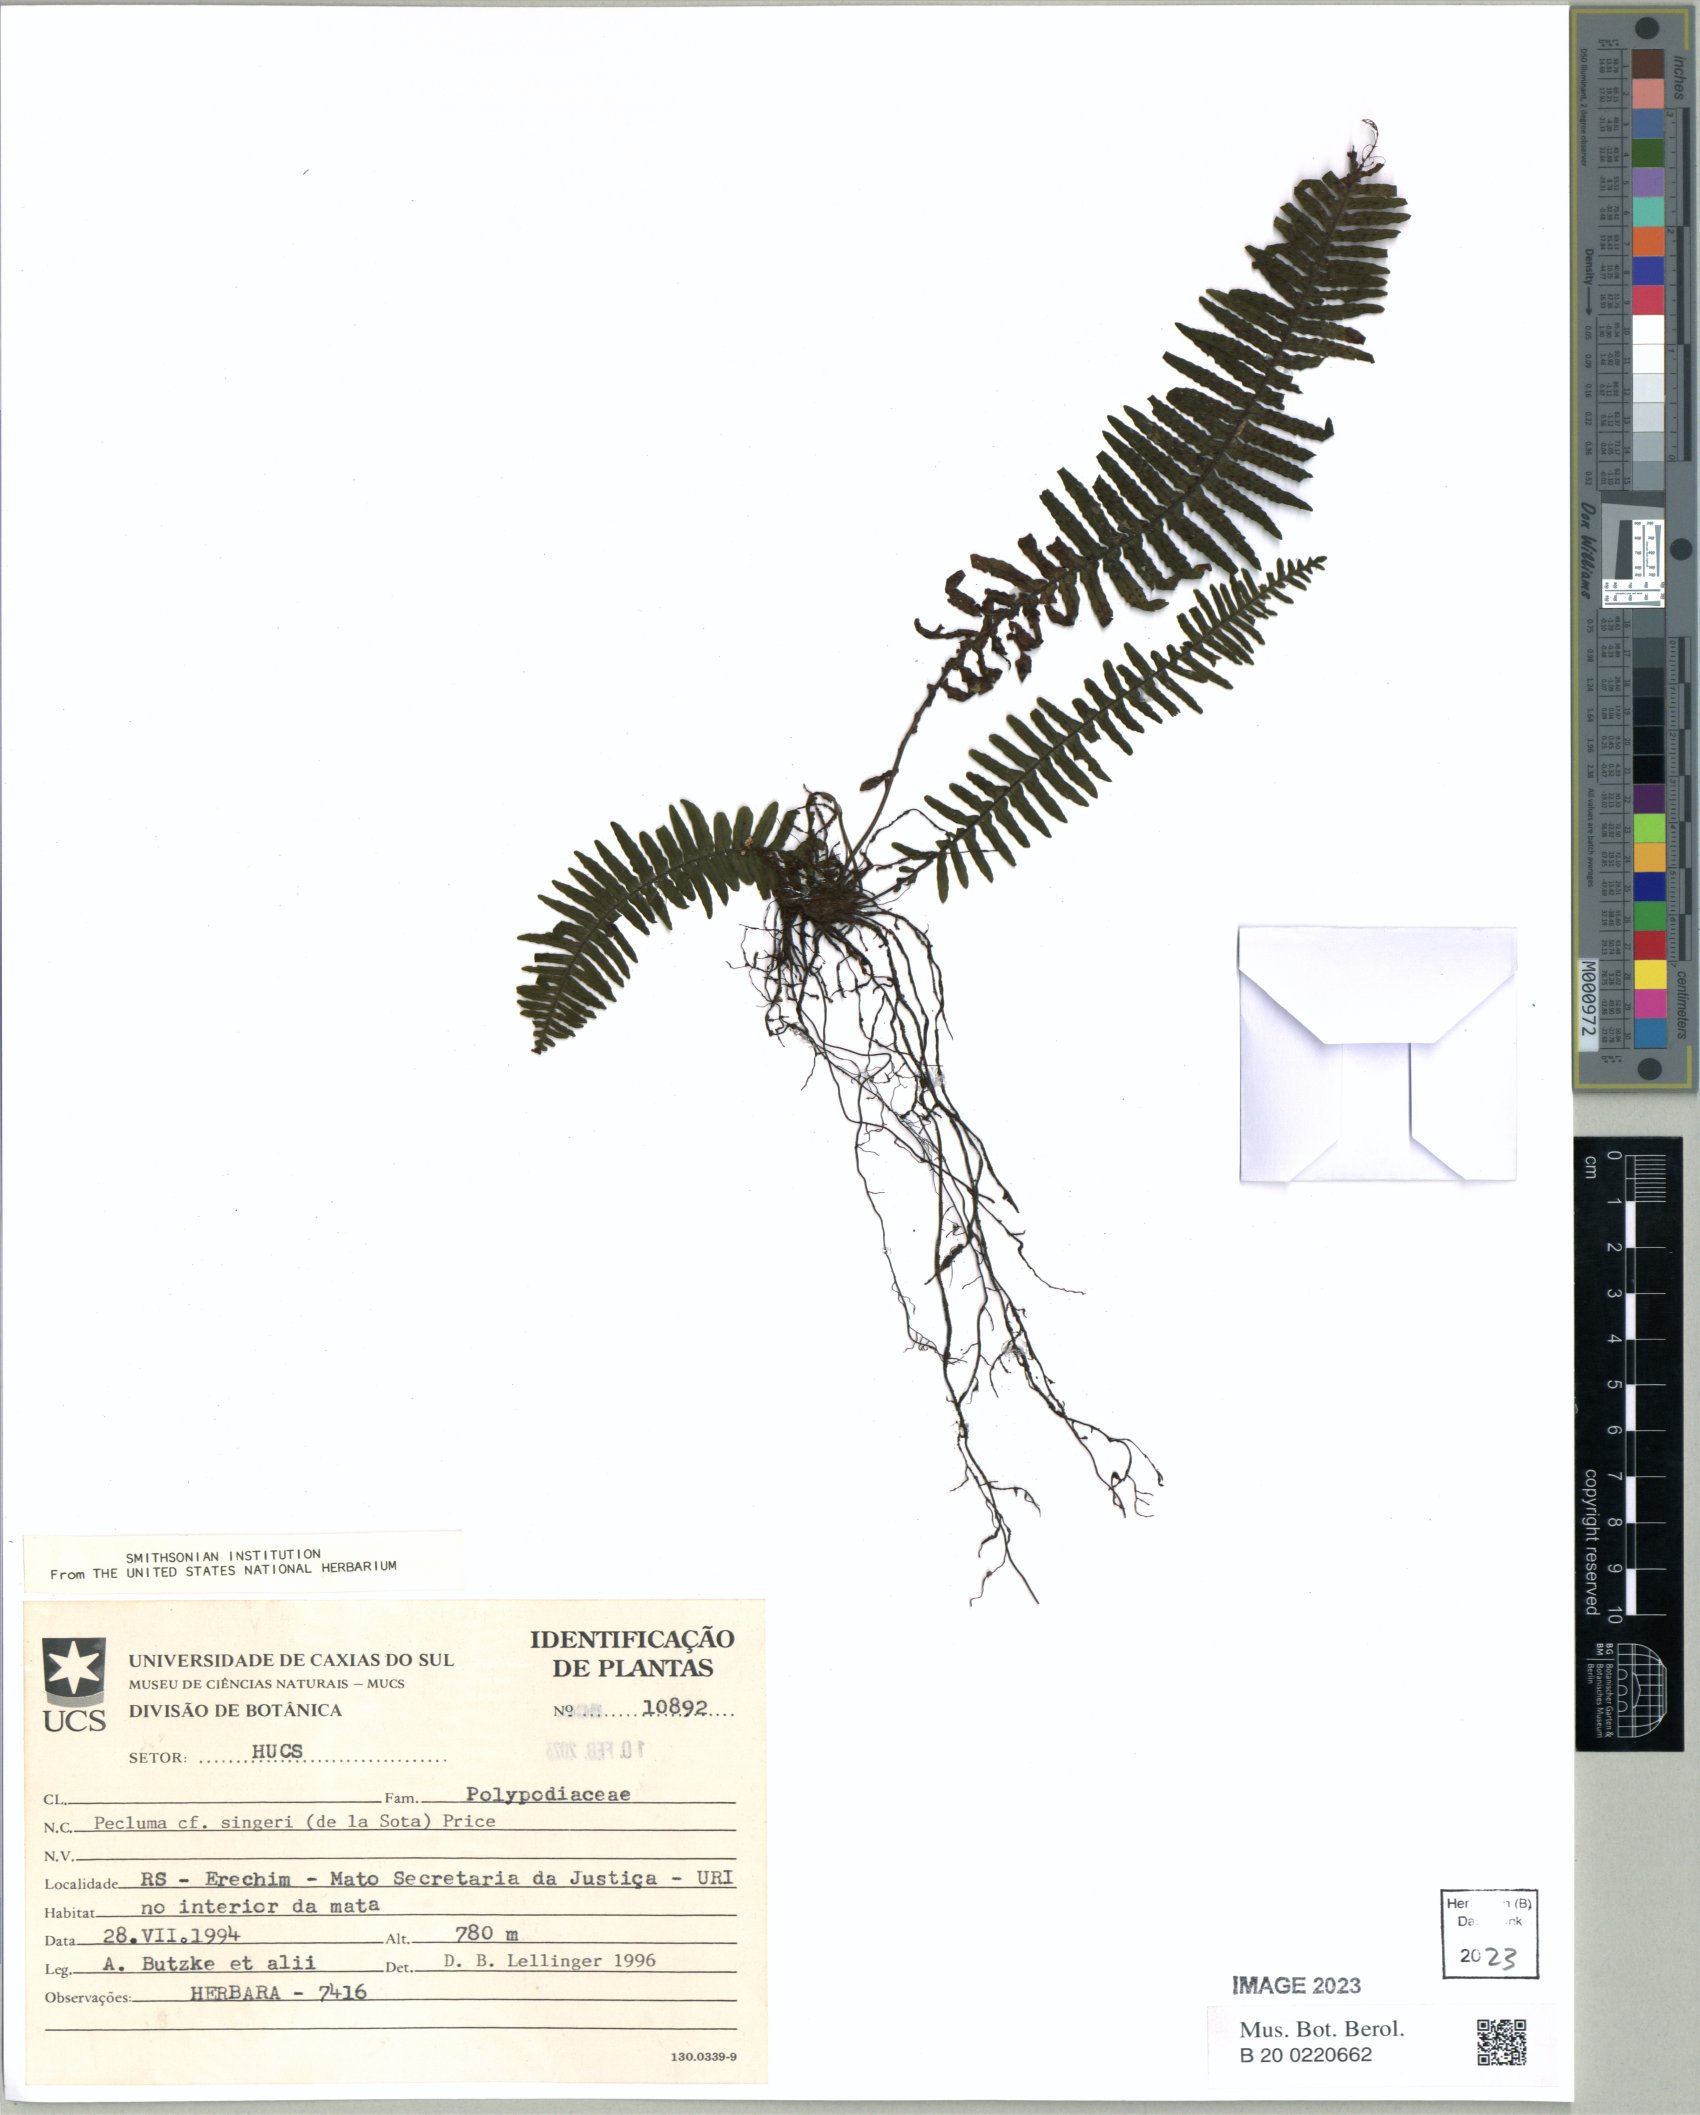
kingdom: Plantae
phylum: Tracheophyta
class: Polypodiopsida
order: Polypodiales
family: Polypodiaceae
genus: Pecluma
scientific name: Pecluma singeri
